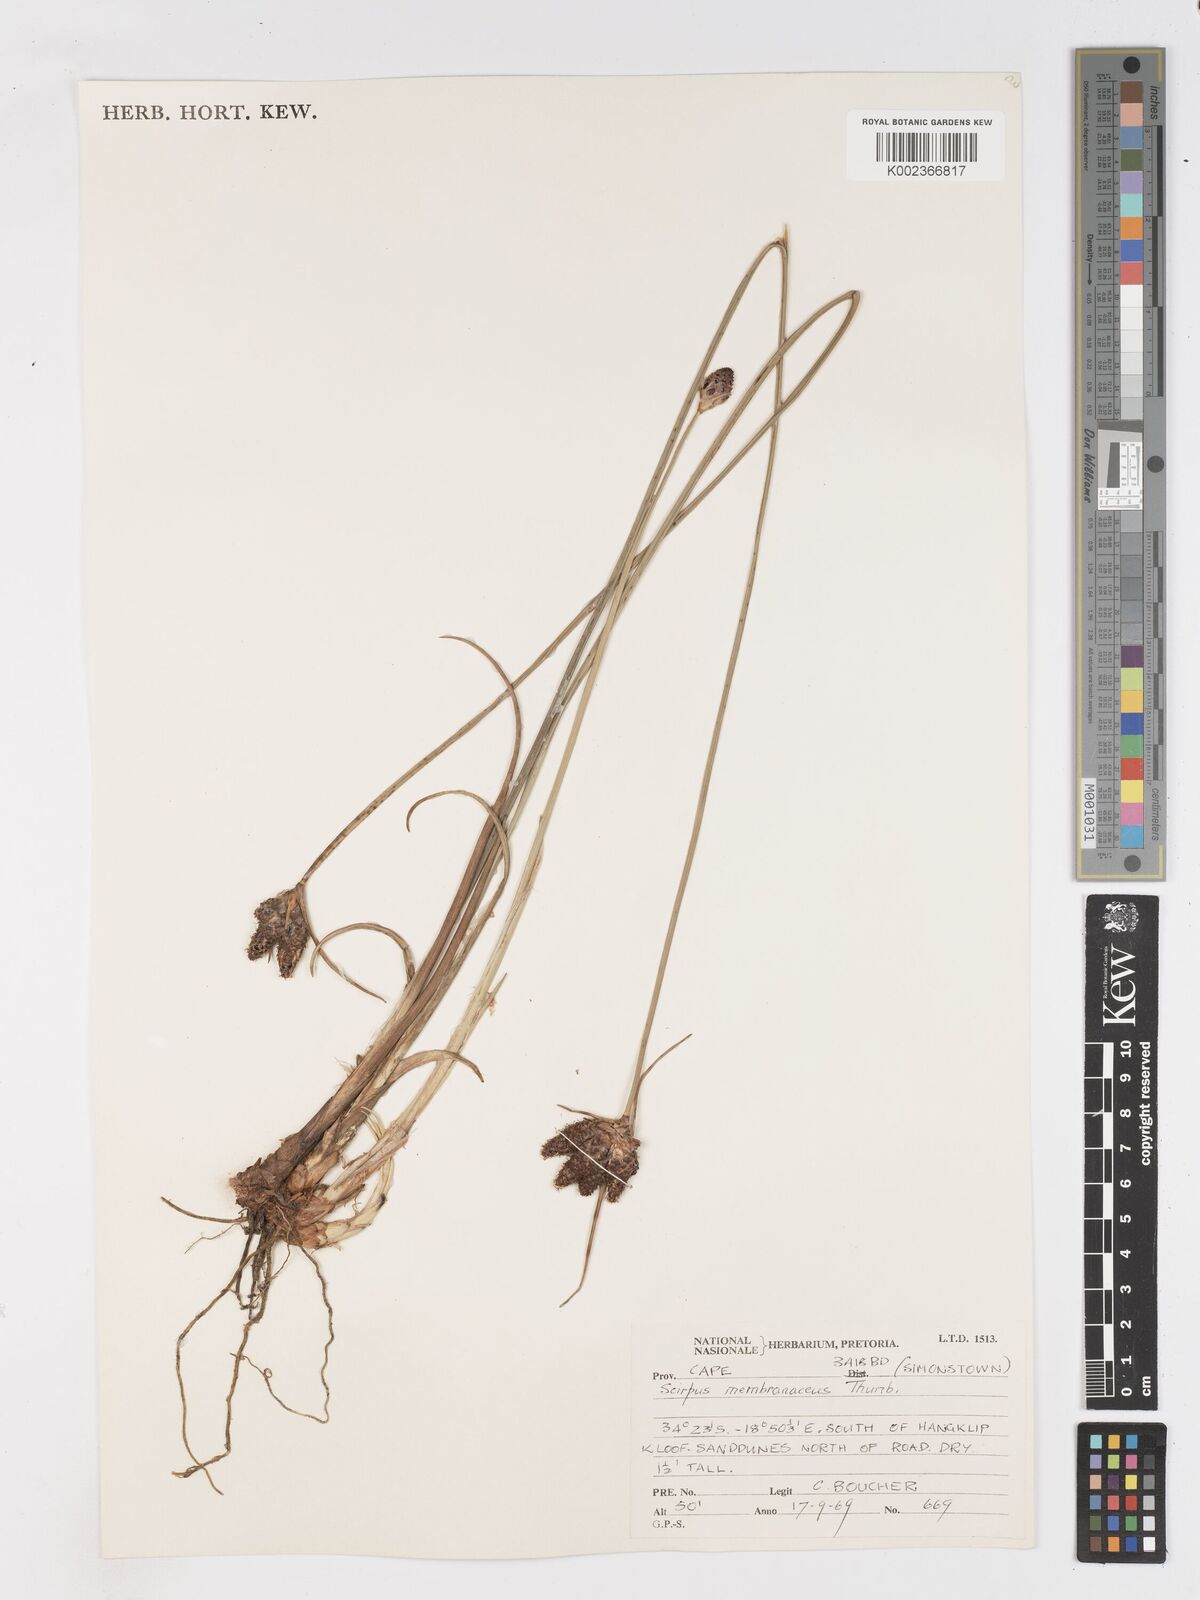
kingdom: Plantae
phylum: Tracheophyta
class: Liliopsida
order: Poales
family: Cyperaceae
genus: Hellmuthia
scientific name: Hellmuthia membranacea
